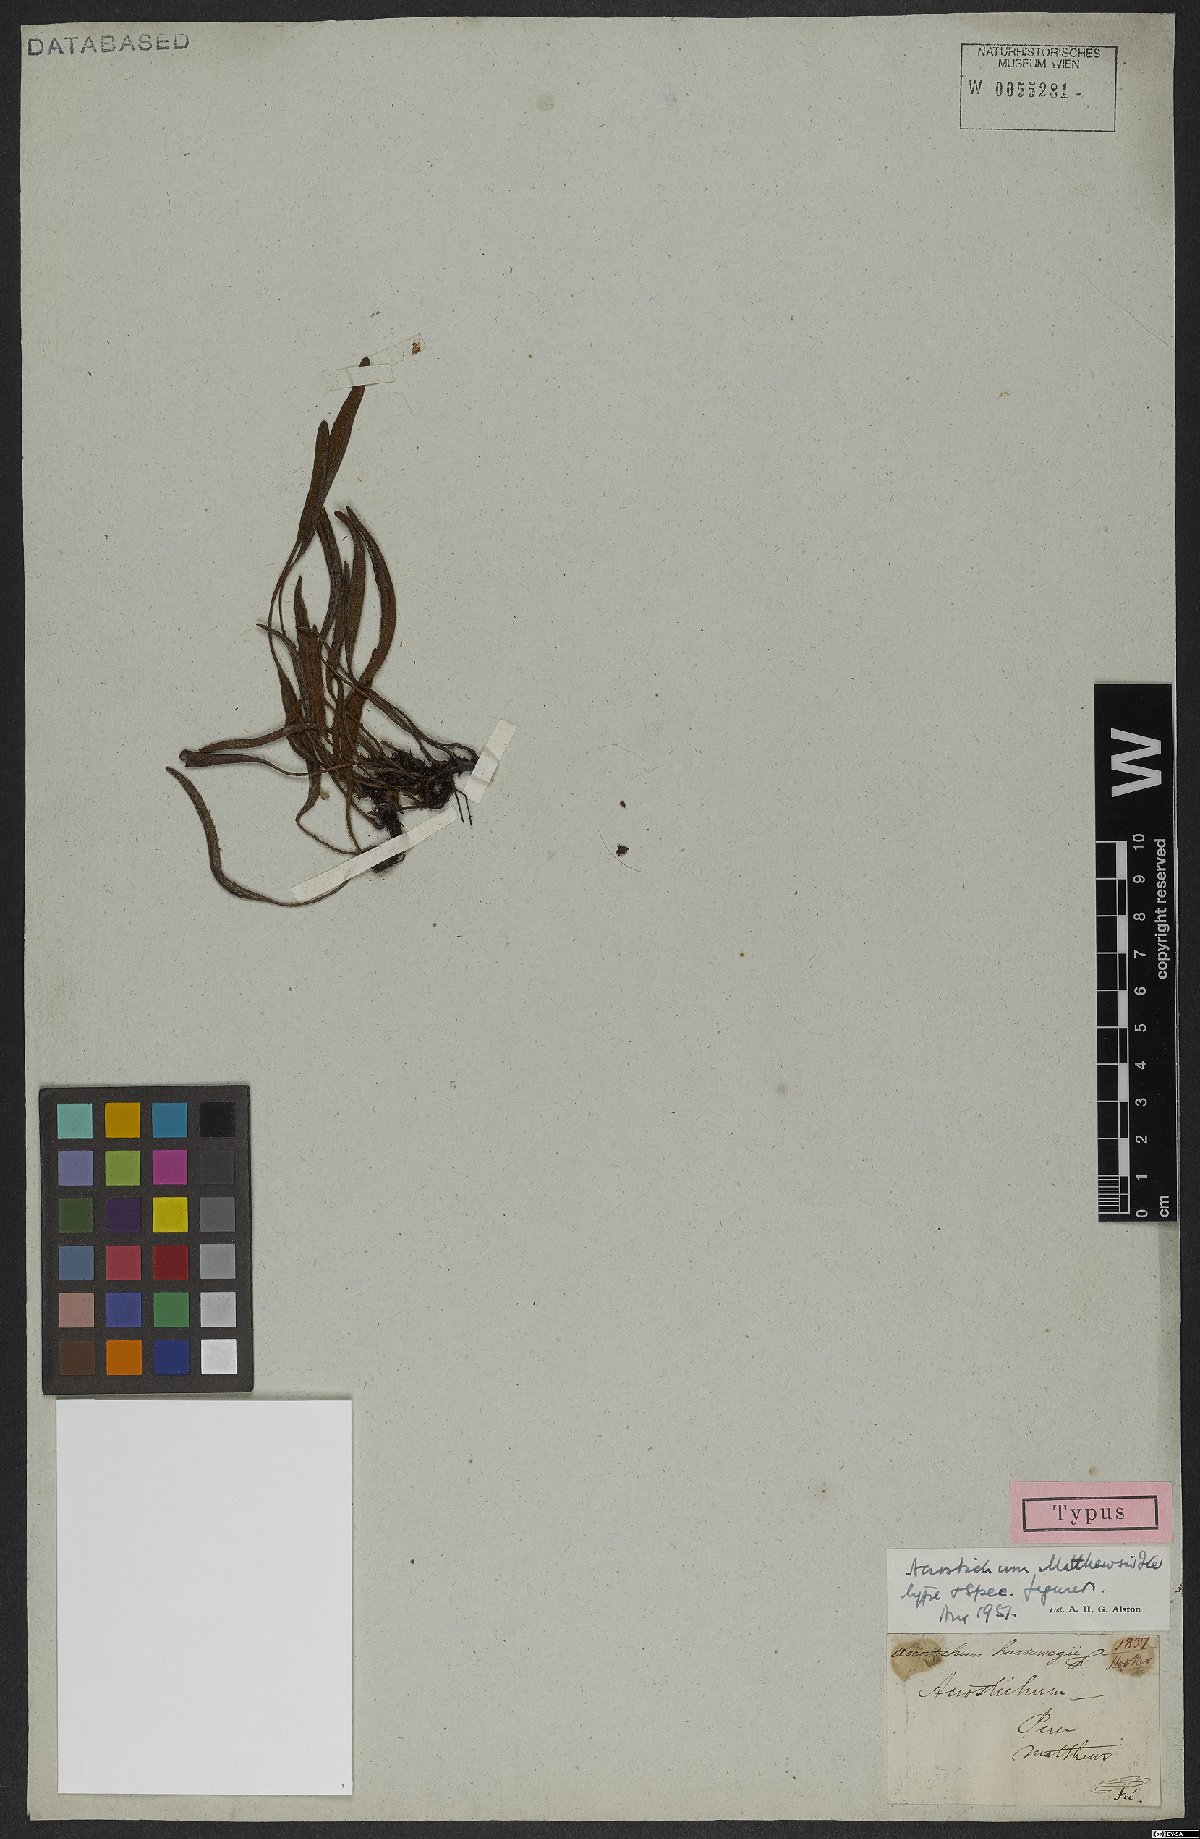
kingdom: Plantae
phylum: Tracheophyta
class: Polypodiopsida
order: Polypodiales
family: Dryopteridaceae
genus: Elaphoglossum
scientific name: Elaphoglossum mathewsii
